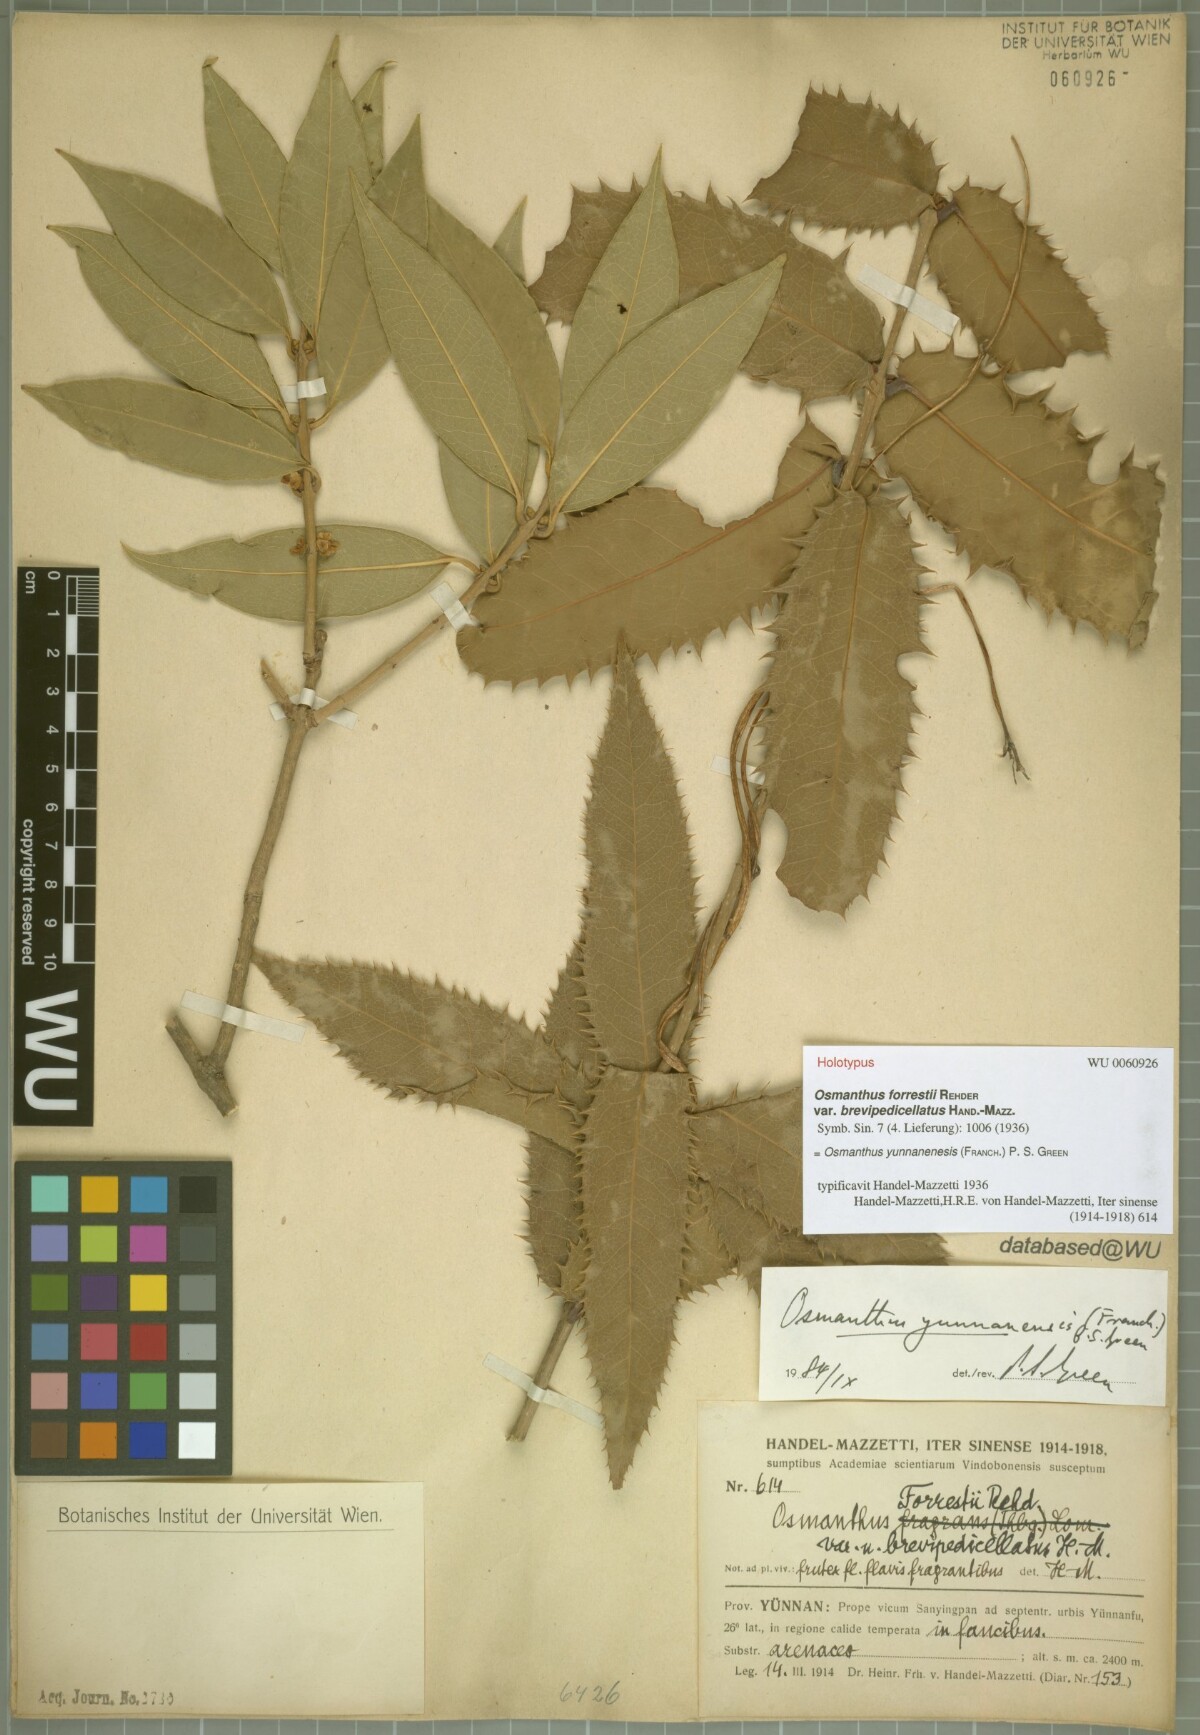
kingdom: Plantae
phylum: Tracheophyta
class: Magnoliopsida
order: Lamiales
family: Oleaceae
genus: Osmanthus
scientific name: Osmanthus yunnanensis
